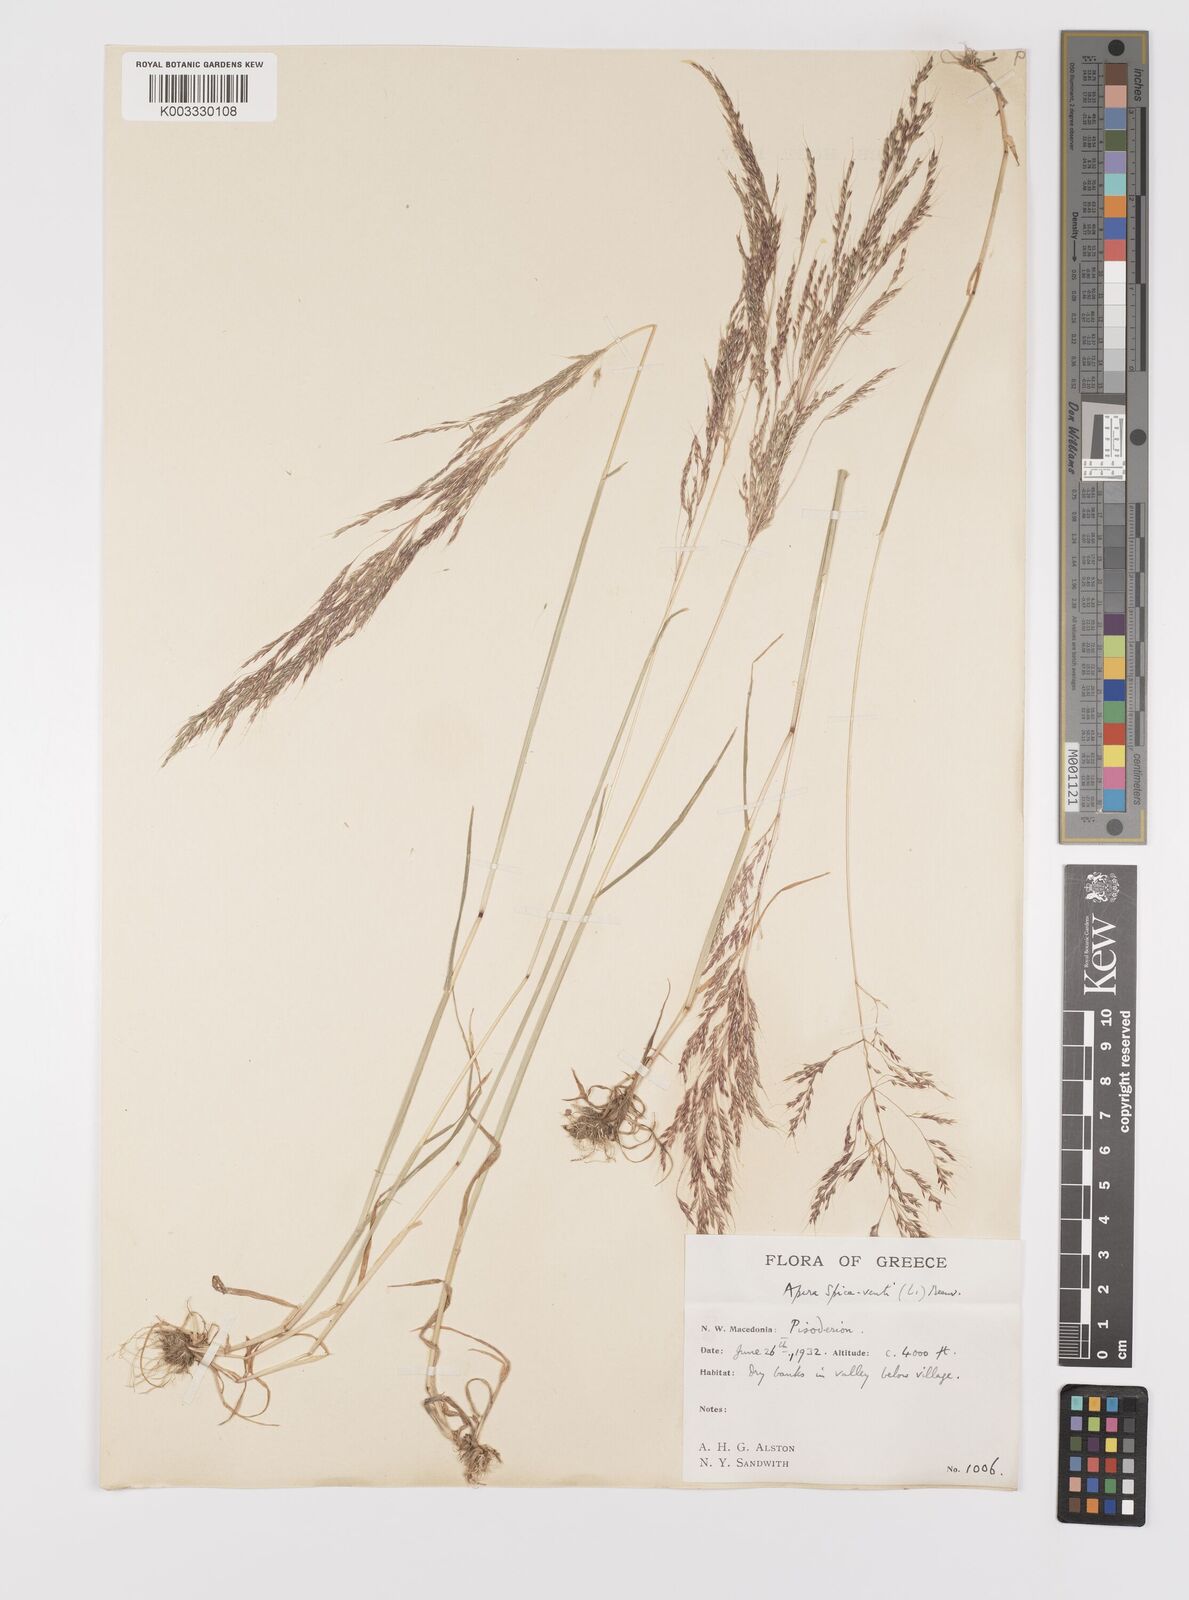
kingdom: Plantae
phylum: Tracheophyta
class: Liliopsida
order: Poales
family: Poaceae
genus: Apera
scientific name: Apera spica-venti
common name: Loose silky-bent
